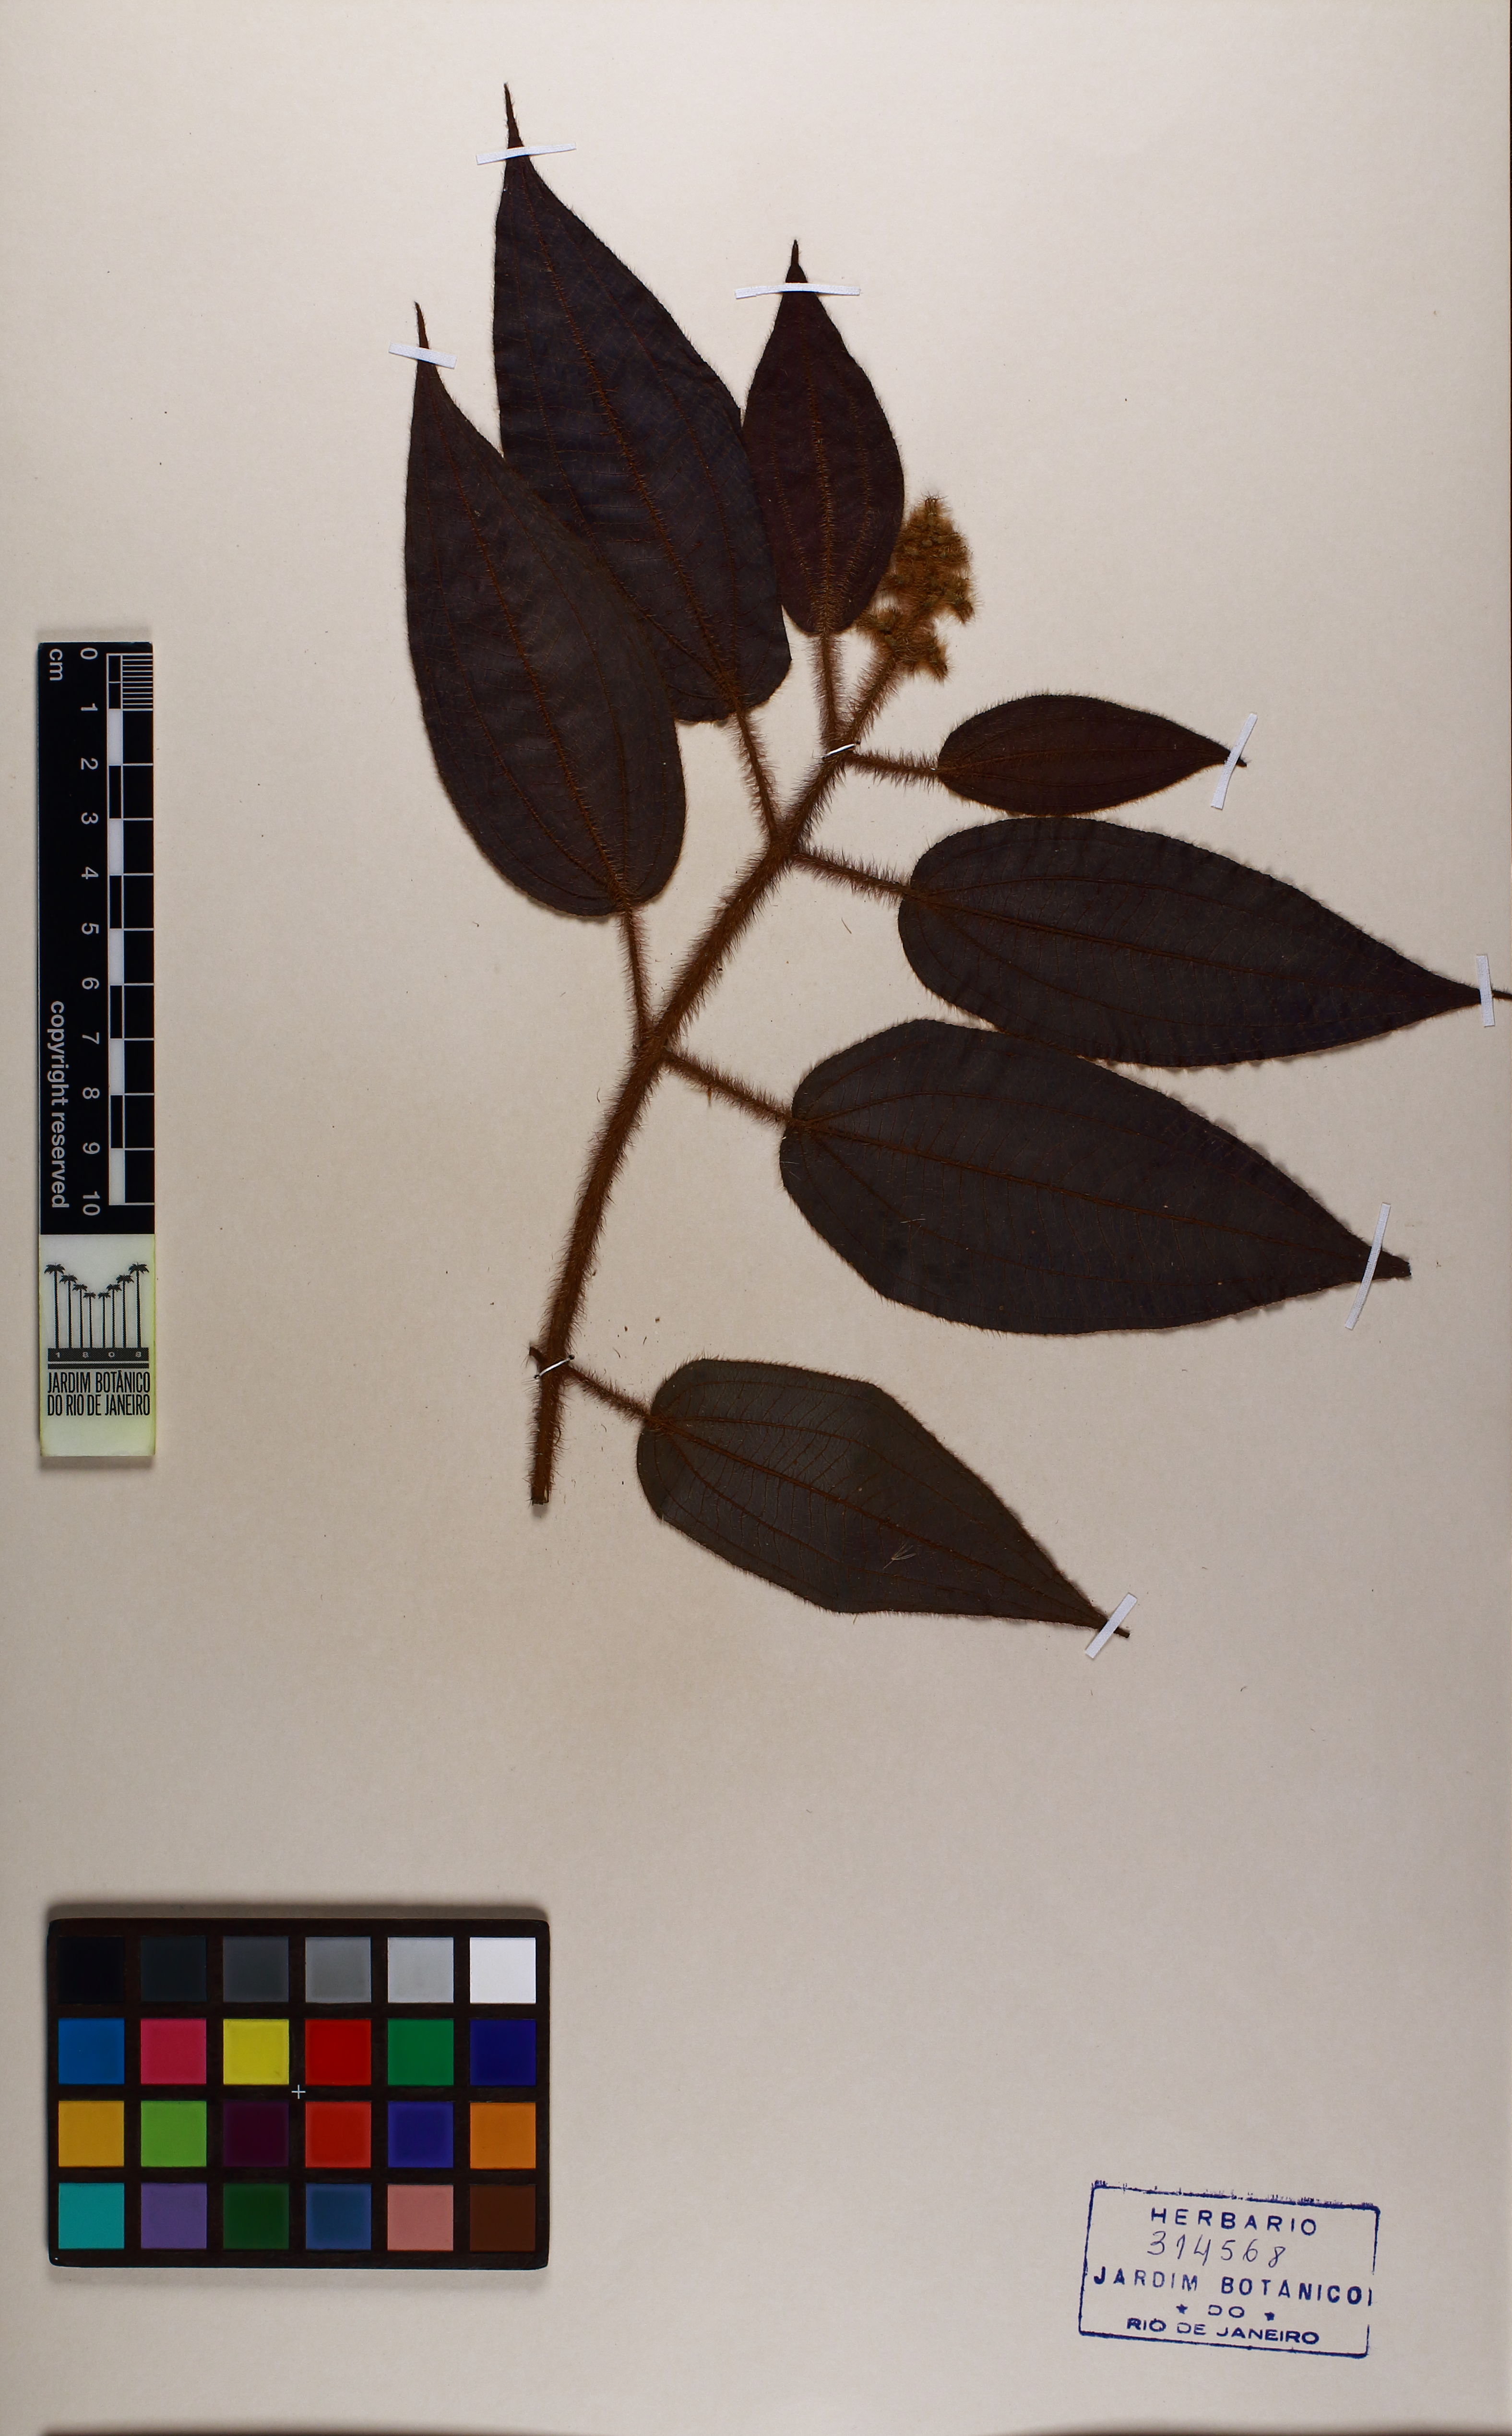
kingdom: Plantae
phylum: Tracheophyta
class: Magnoliopsida
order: Myrtales
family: Melastomataceae
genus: Miconia
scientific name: Miconia nianga
